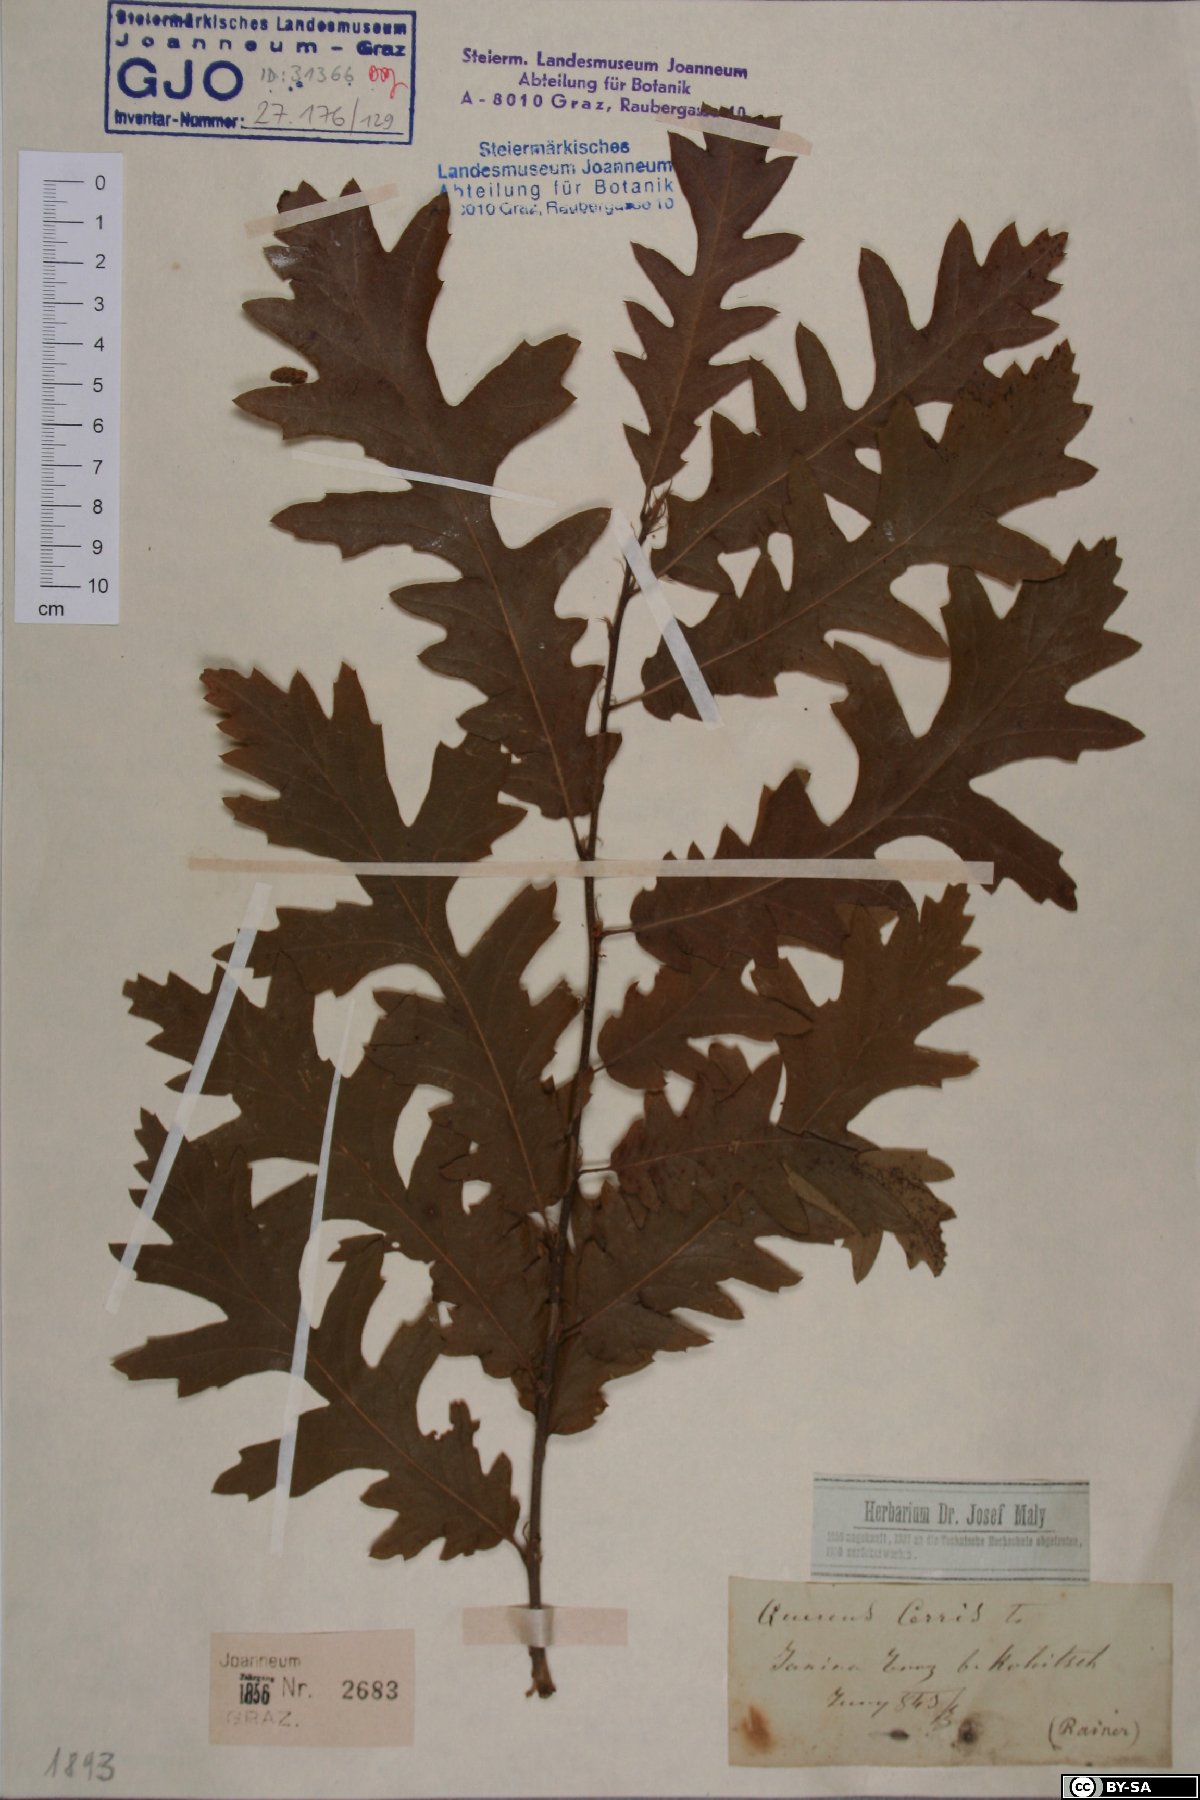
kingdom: Plantae
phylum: Tracheophyta
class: Magnoliopsida
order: Fagales
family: Fagaceae
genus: Quercus
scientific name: Quercus cerris
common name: Turkey oak
